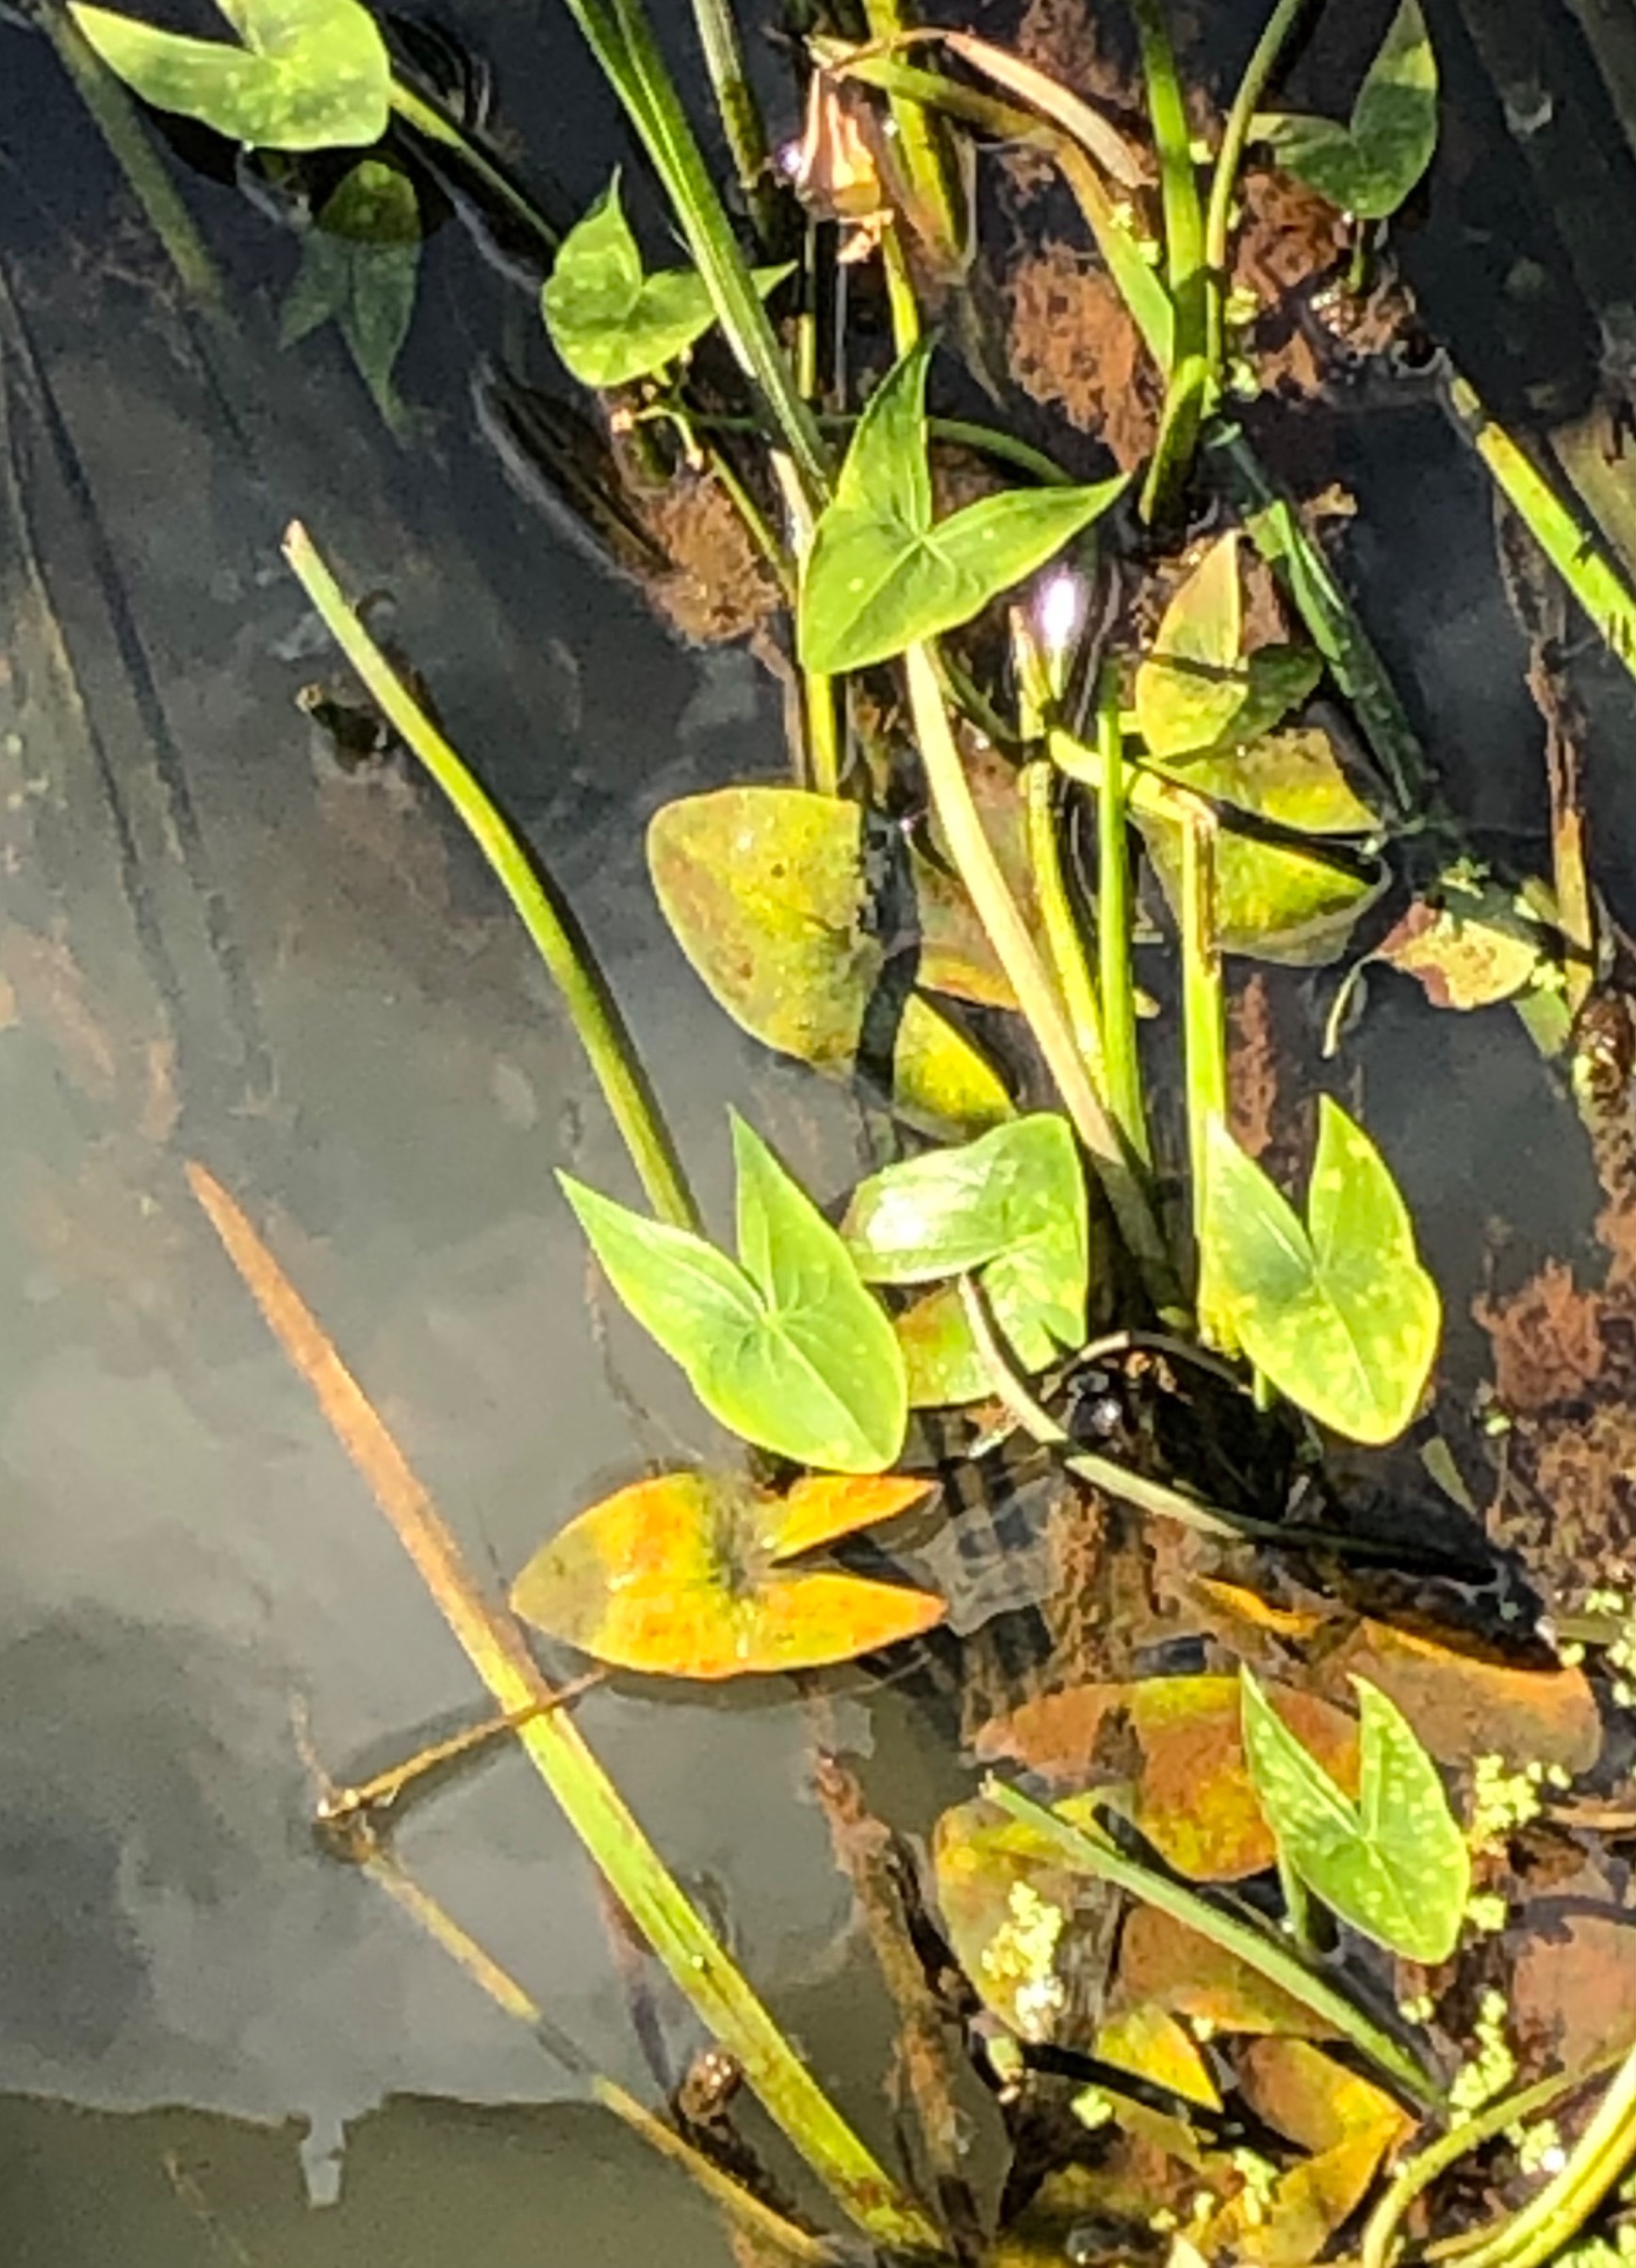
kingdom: Plantae
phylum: Tracheophyta
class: Liliopsida
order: Alismatales
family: Alismataceae
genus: Sagittaria
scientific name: Sagittaria sagittifolia
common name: Pilblad
